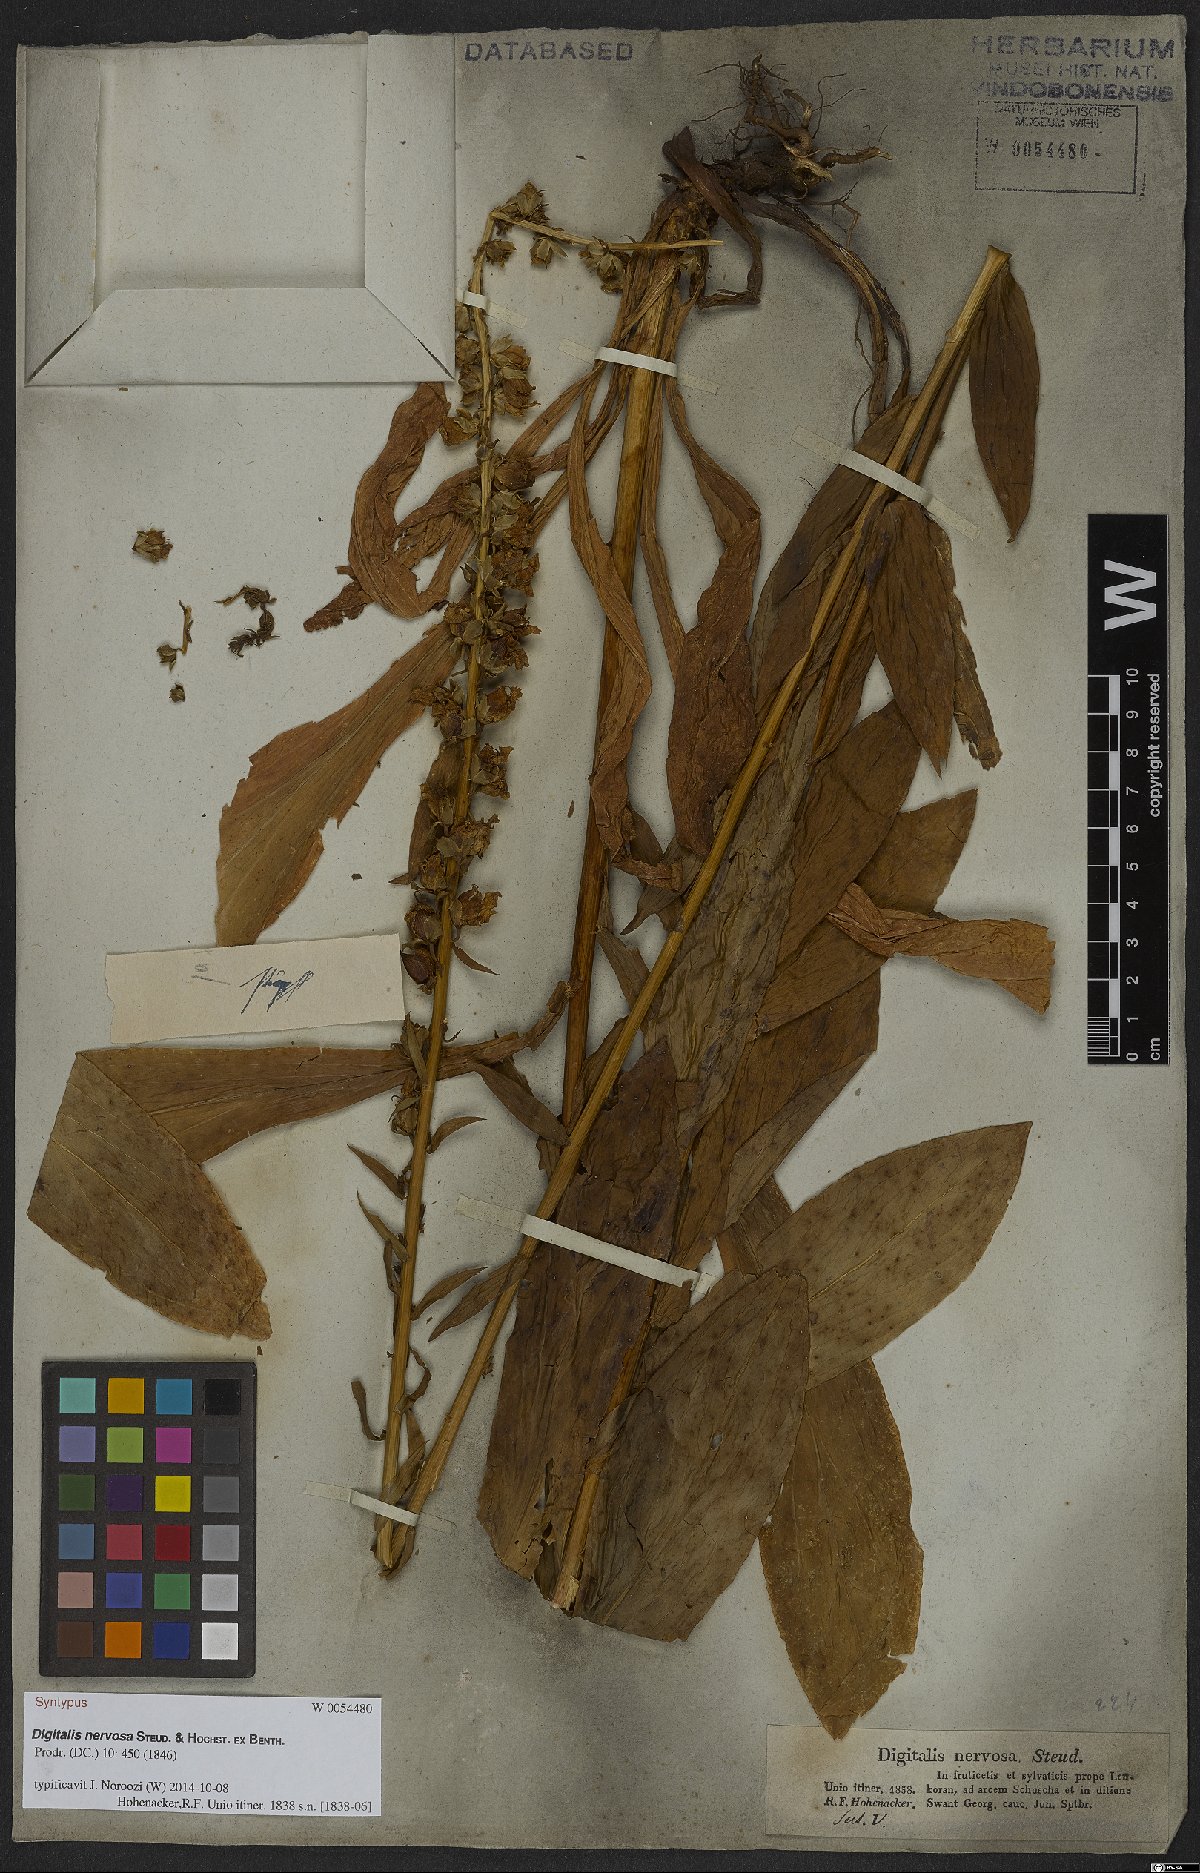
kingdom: Plantae
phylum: Tracheophyta
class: Magnoliopsida
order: Lamiales
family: Plantaginaceae
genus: Digitalis
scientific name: Digitalis nervosa
